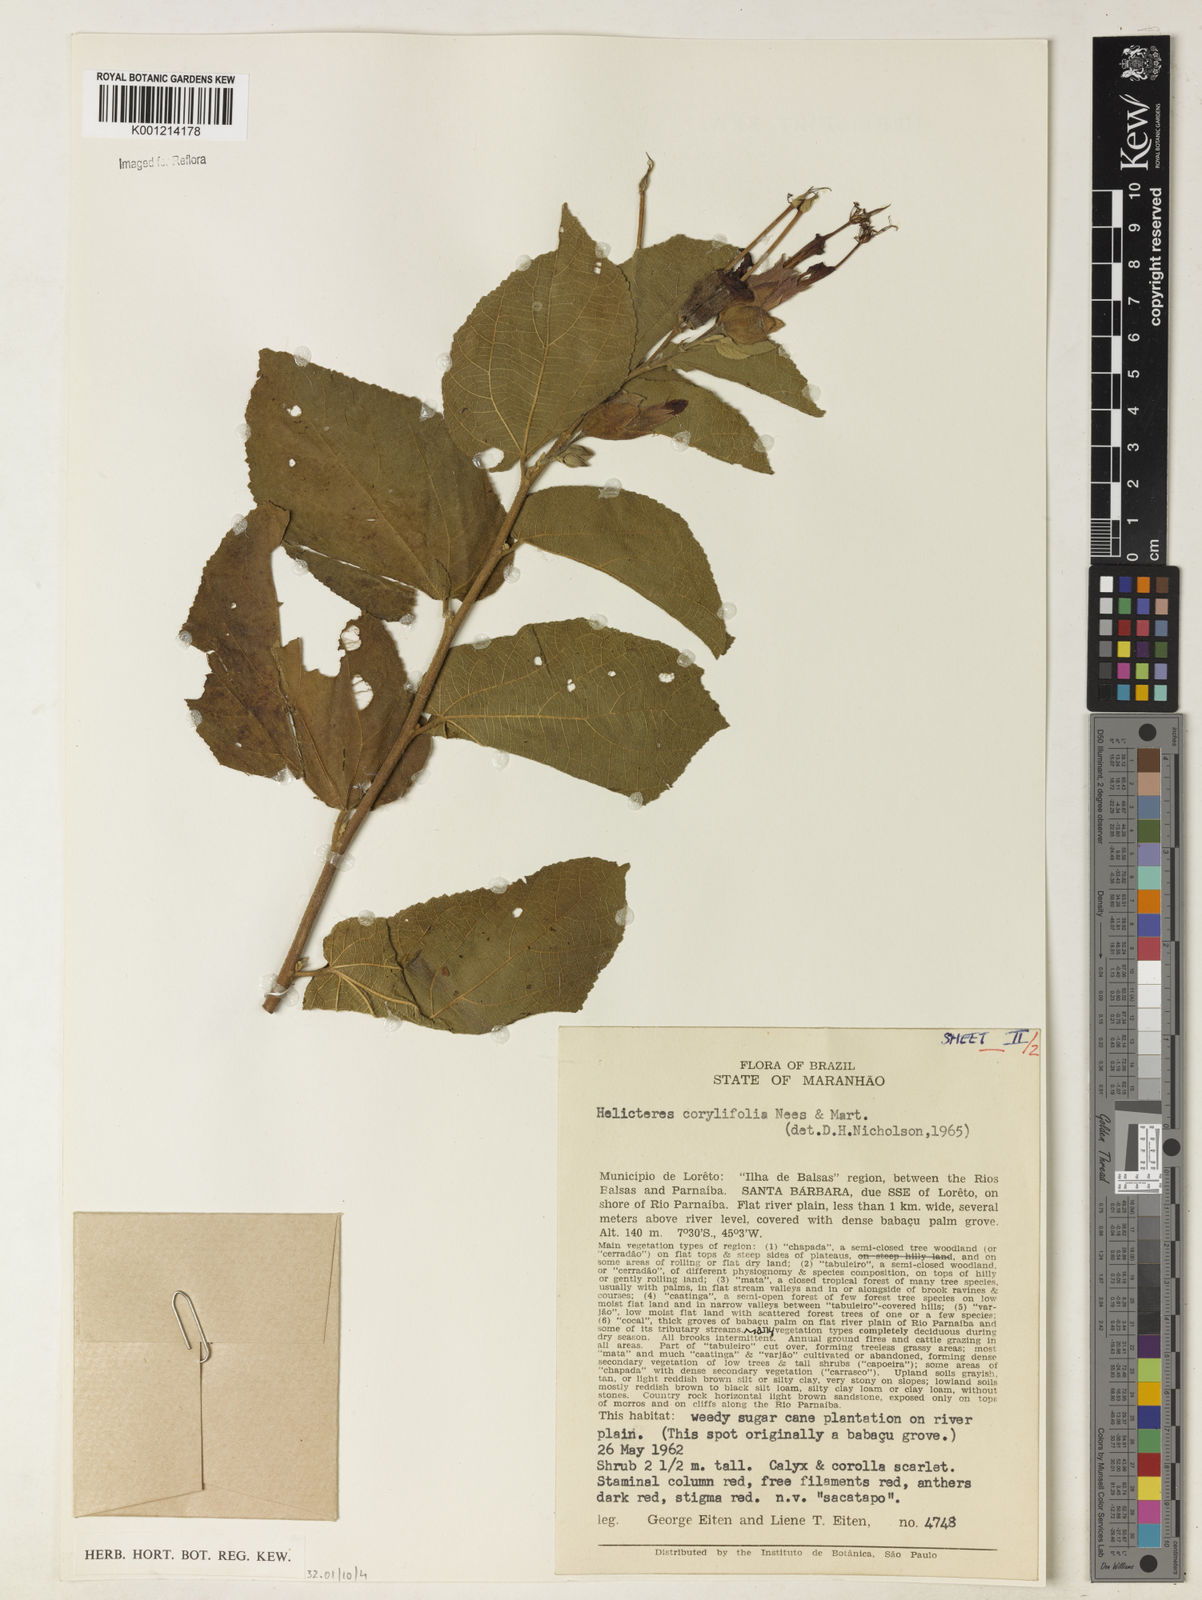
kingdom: Plantae
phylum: Tracheophyta
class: Magnoliopsida
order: Malvales
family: Malvaceae
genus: Helicteres
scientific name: Helicteres corylifolia
